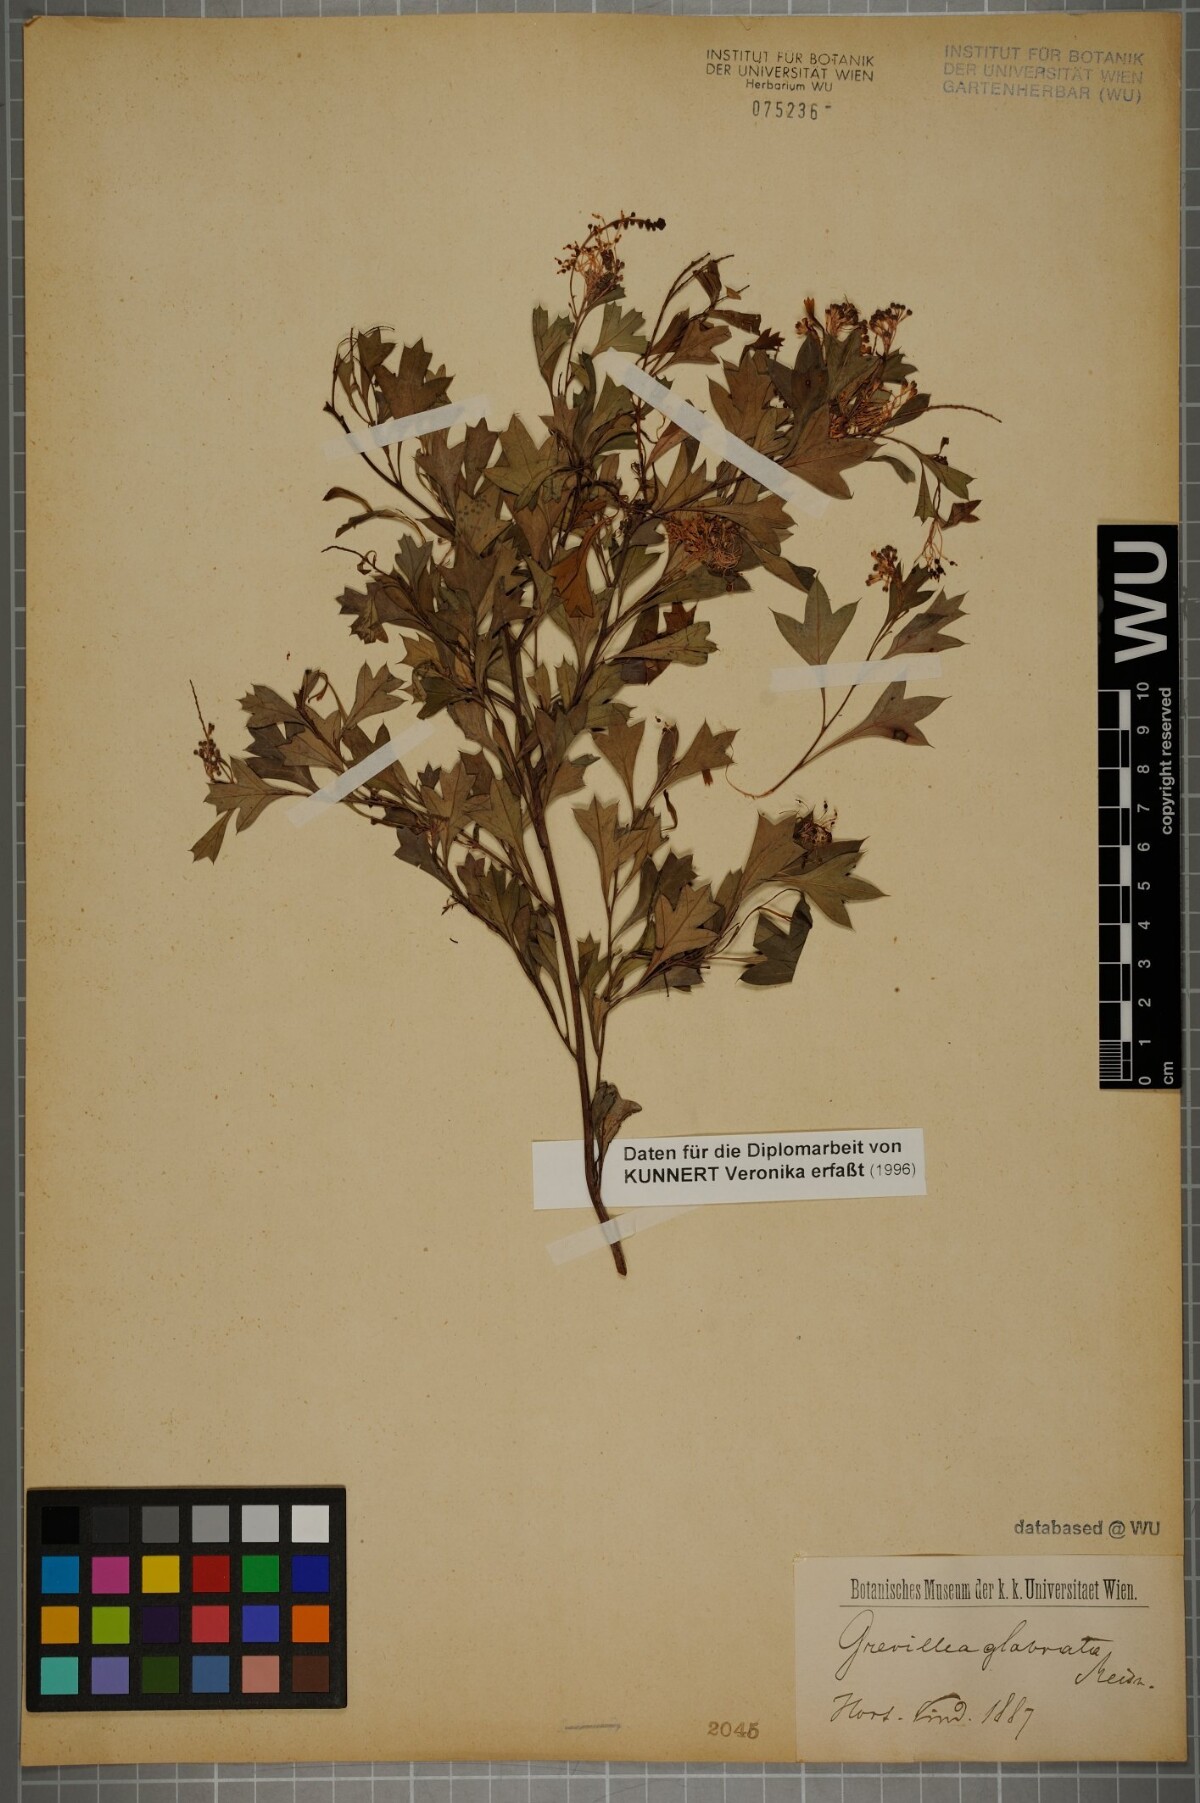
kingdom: Plantae
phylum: Tracheophyta
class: Magnoliopsida
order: Proteales
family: Proteaceae
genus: Grevillea
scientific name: Grevillea manglesii
